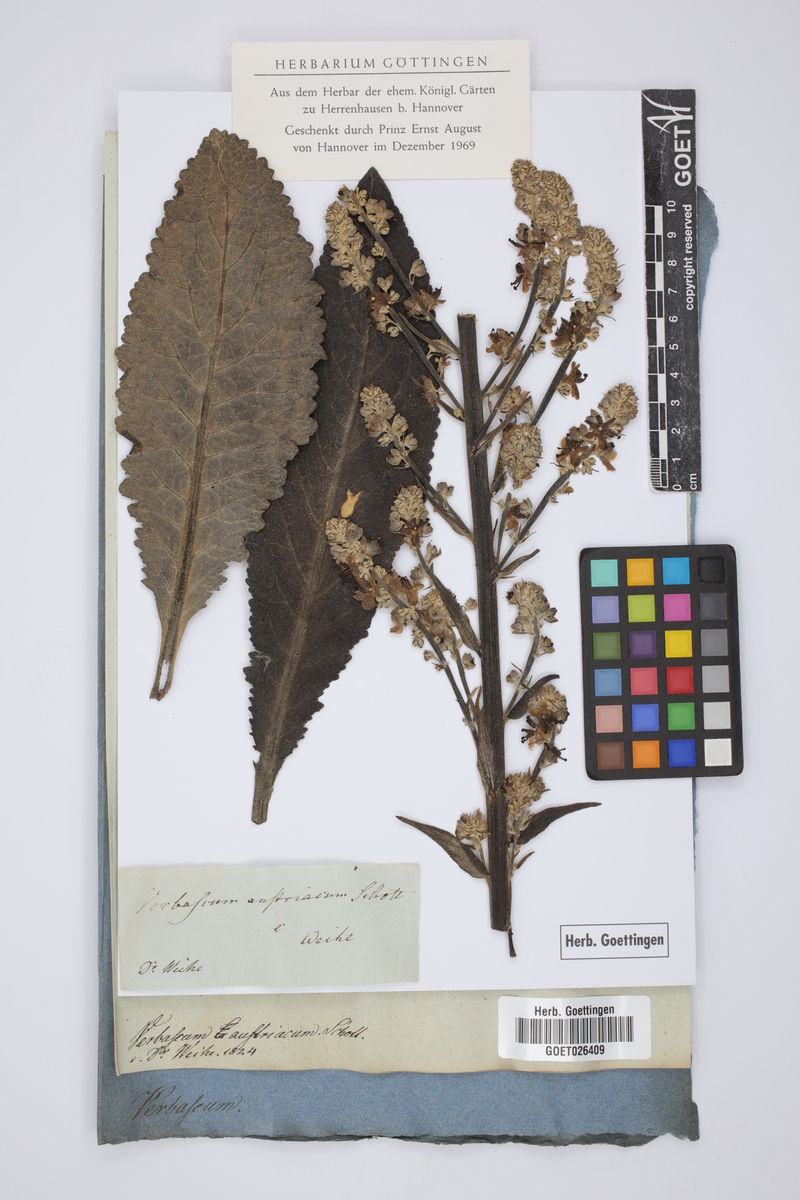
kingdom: Plantae
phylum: Tracheophyta
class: Magnoliopsida
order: Lamiales
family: Scrophulariaceae
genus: Verbascum
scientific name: Verbascum chaixii
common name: Nettle-leaved mullein
